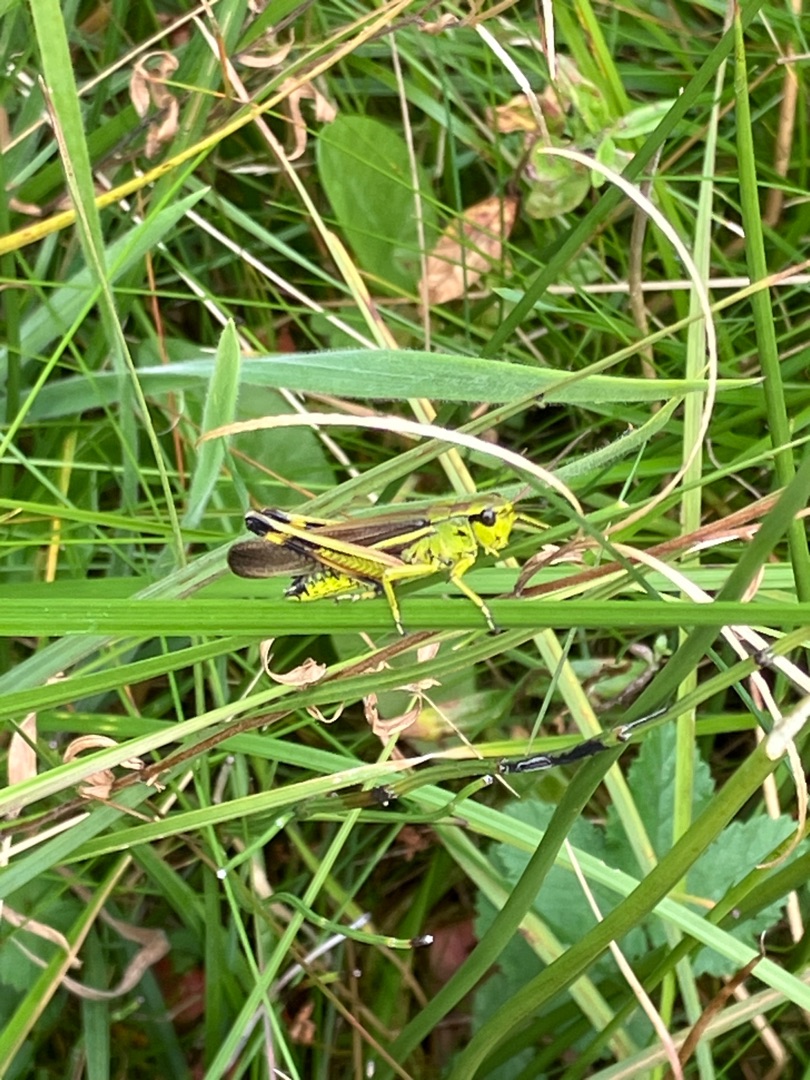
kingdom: Animalia
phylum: Arthropoda
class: Insecta
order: Orthoptera
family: Acrididae
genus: Stethophyma
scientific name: Stethophyma grossum
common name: Sumpgræshoppe
